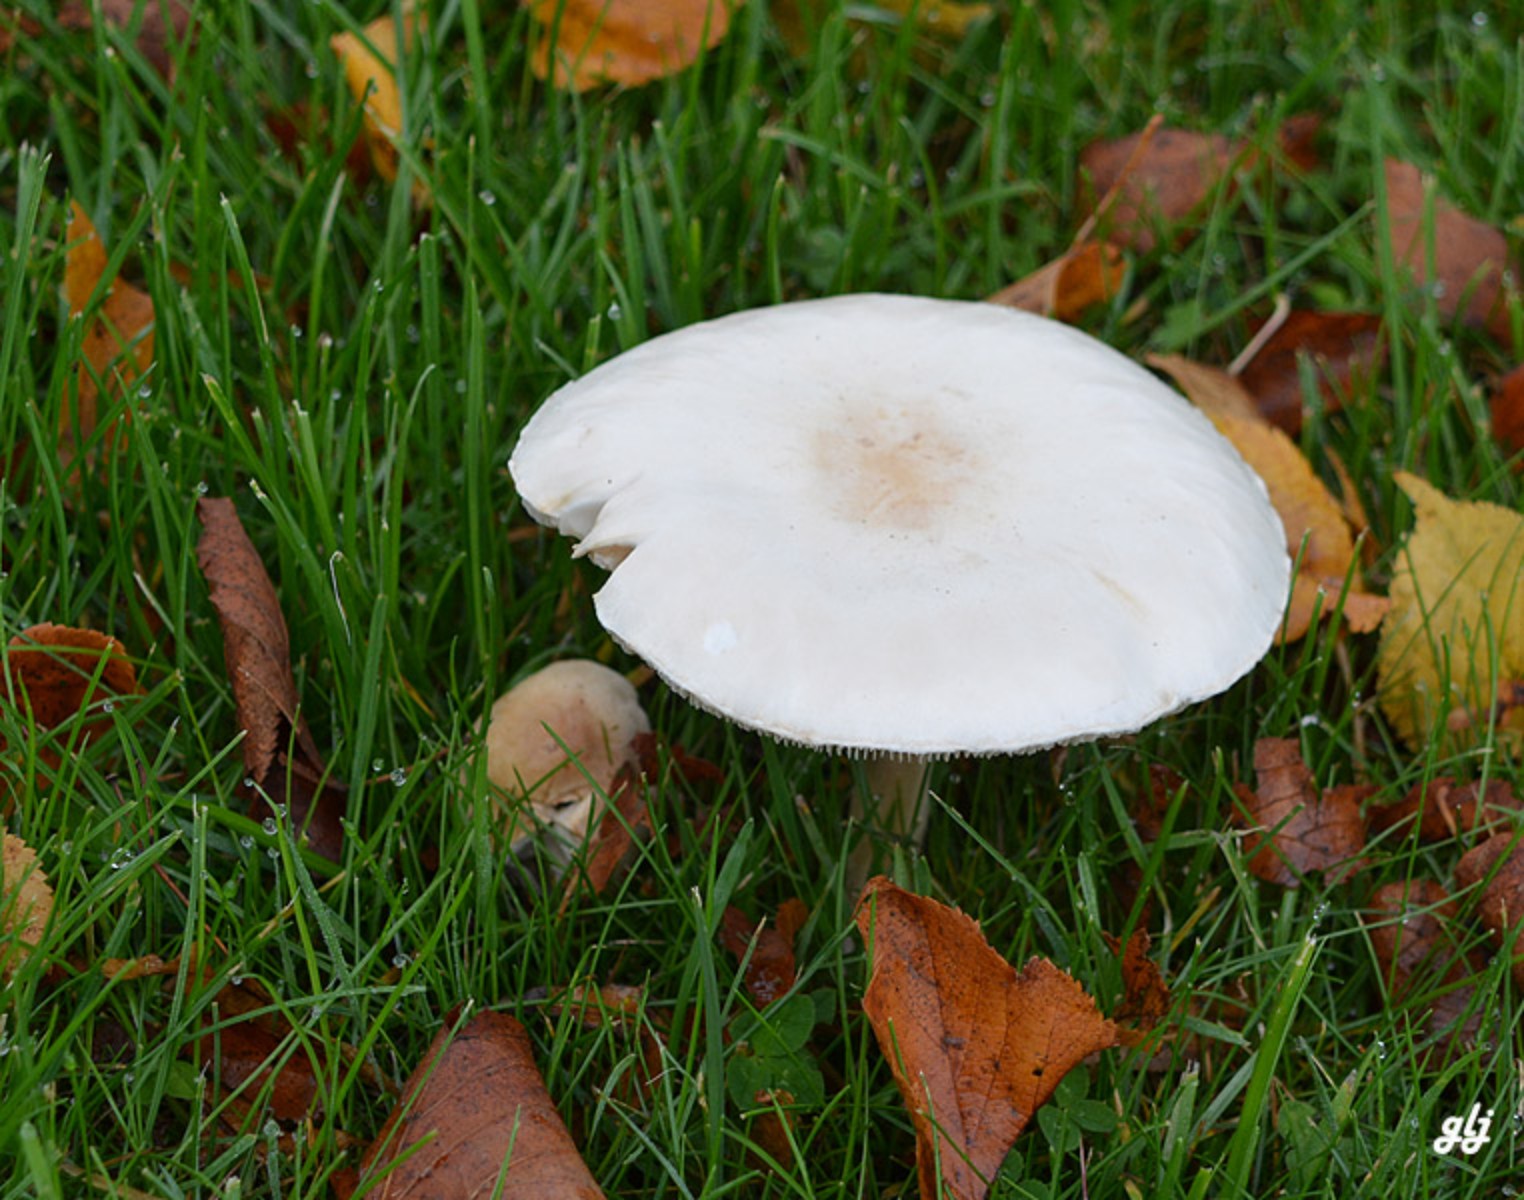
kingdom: Fungi
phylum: Basidiomycota
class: Agaricomycetes
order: Agaricales
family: Agaricaceae
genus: Leucoagaricus
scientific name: Leucoagaricus leucothites
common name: rosabladet silkehat
